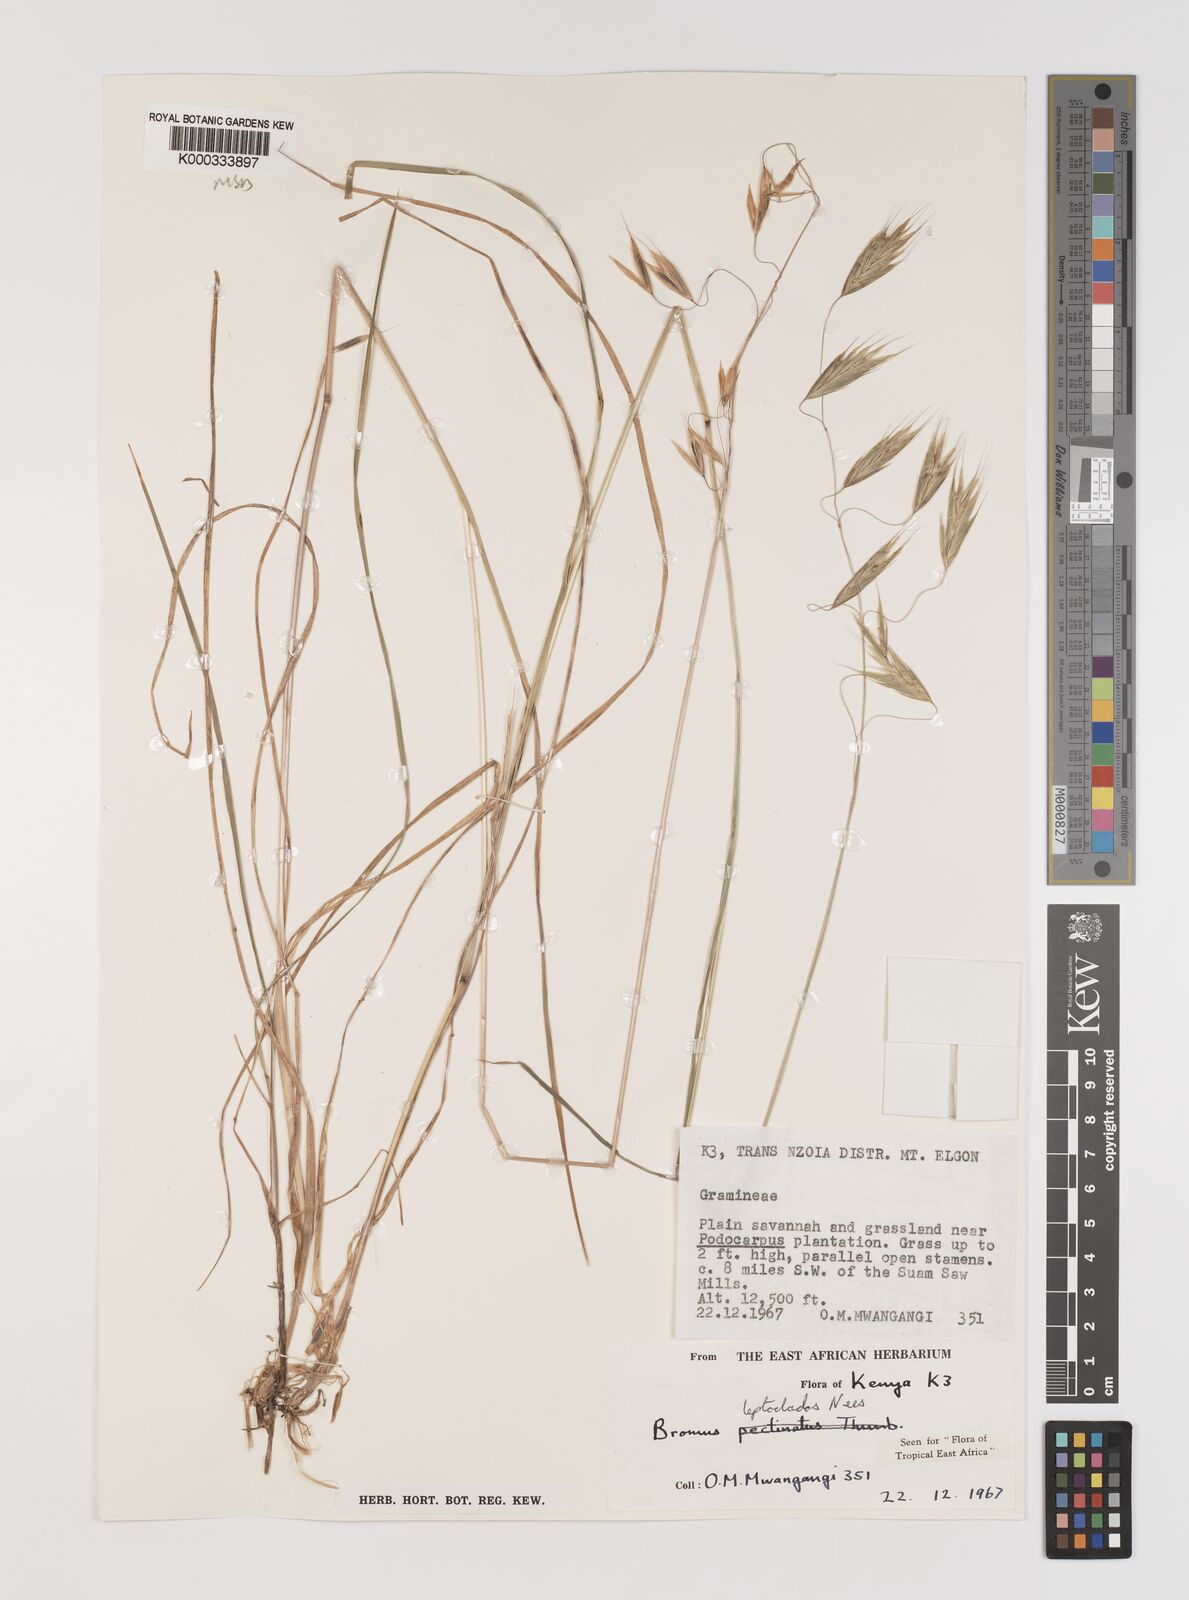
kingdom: Plantae
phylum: Tracheophyta
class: Liliopsida
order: Poales
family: Poaceae
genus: Bromus
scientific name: Bromus leptoclados
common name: Mountain bromegrass
